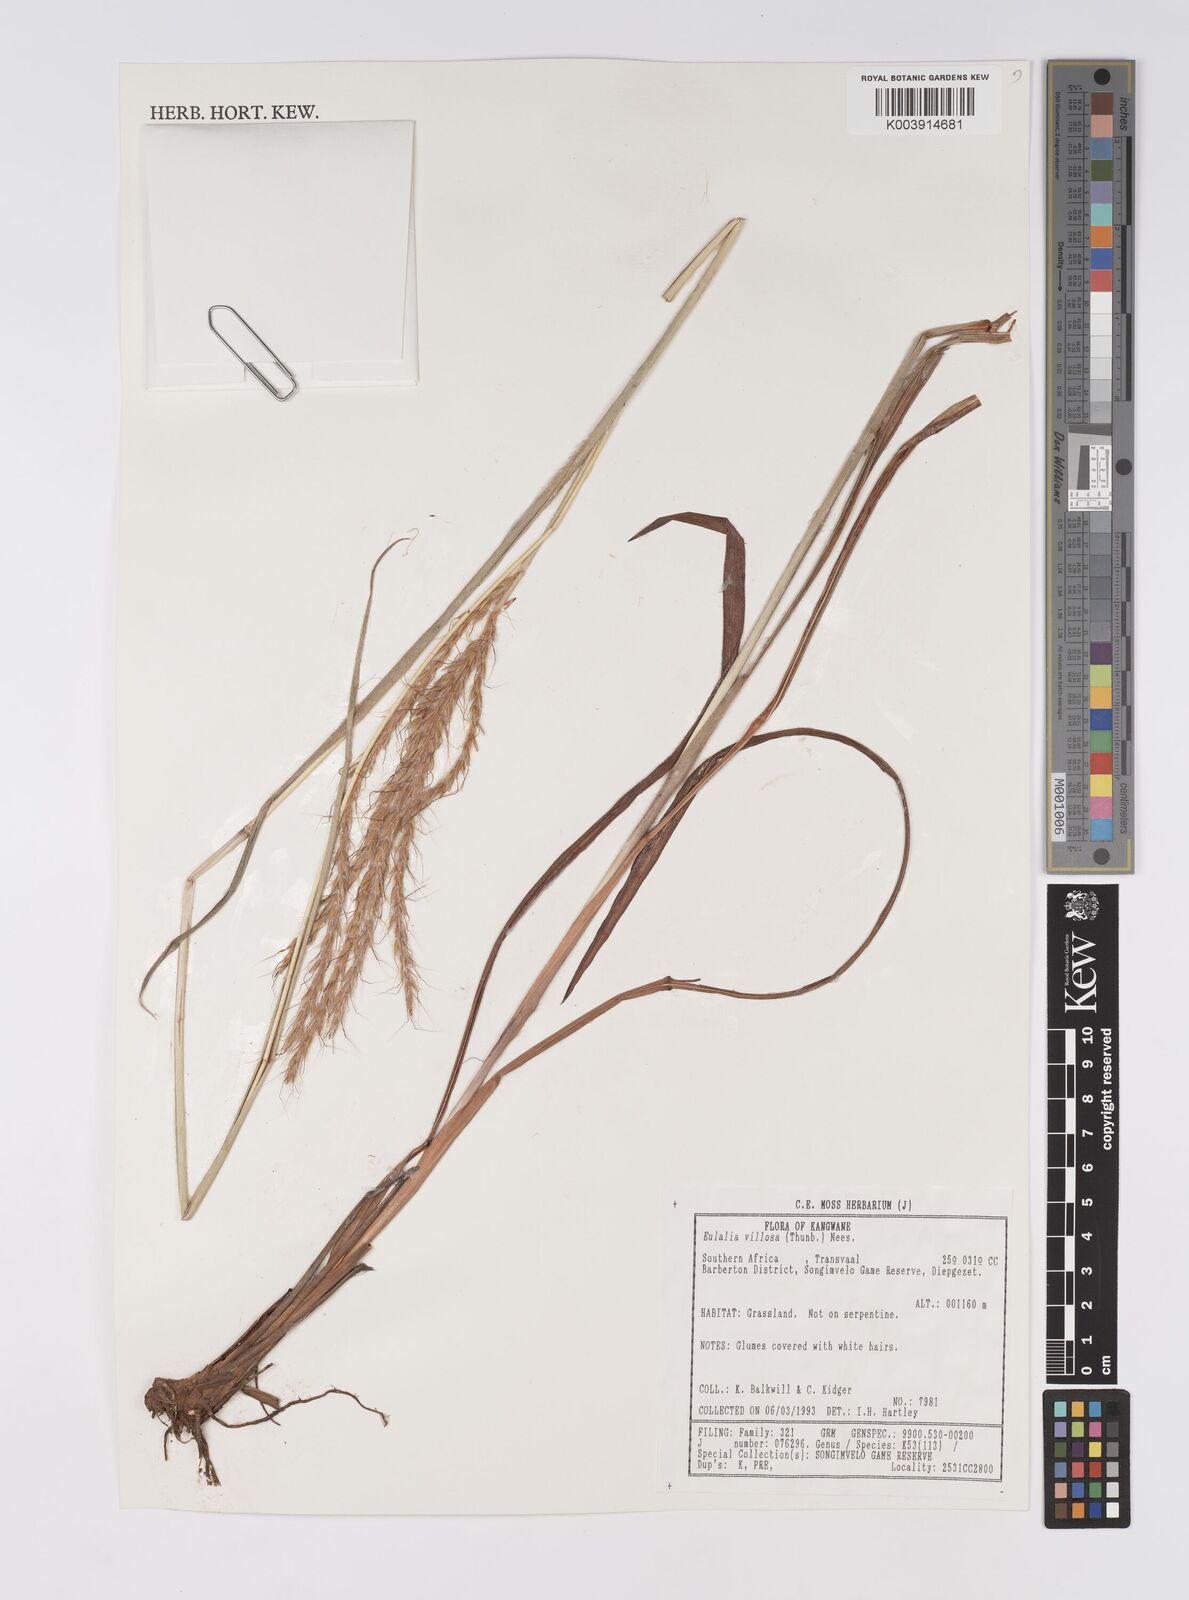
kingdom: Plantae
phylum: Tracheophyta
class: Liliopsida
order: Poales
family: Poaceae
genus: Eulalia
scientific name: Eulalia villosa
